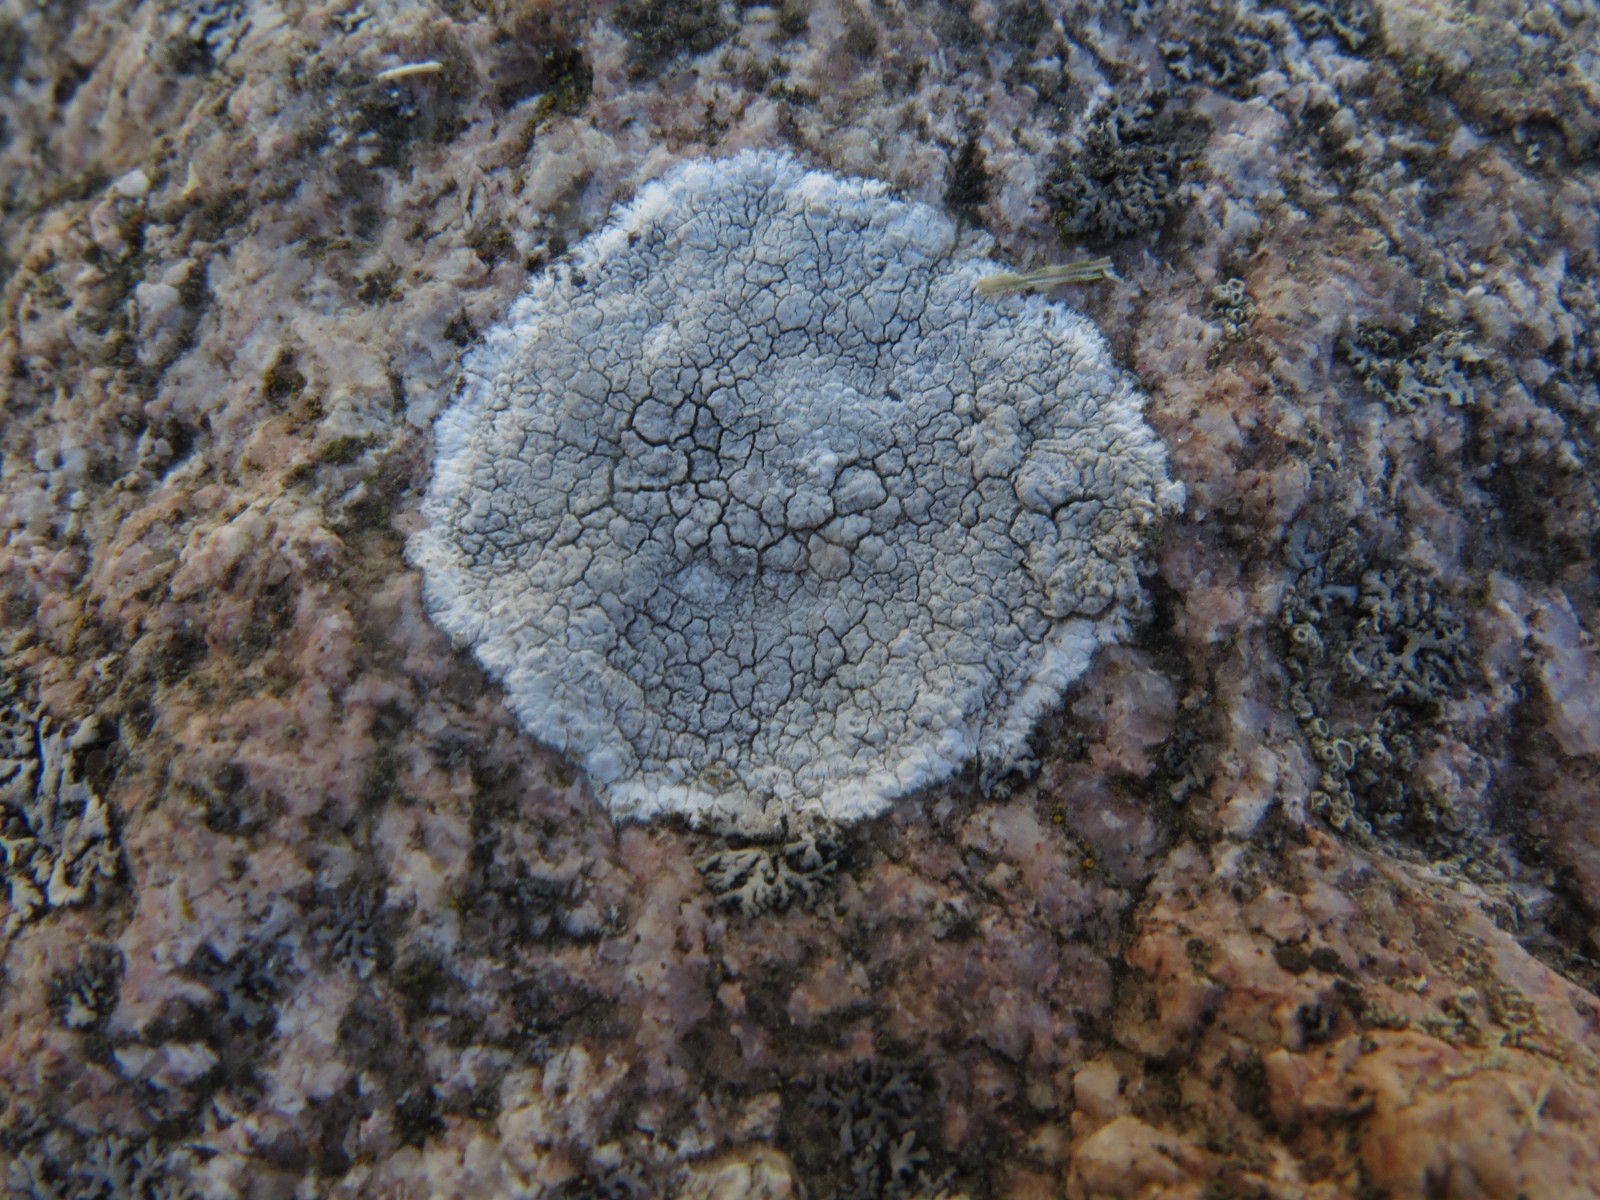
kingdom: Fungi
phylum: Ascomycota
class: Lecanoromycetes
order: Lecanorales
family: Lecanoraceae
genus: Glaucomaria
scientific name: Glaucomaria rupicola
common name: stengærde-kantskivelav
